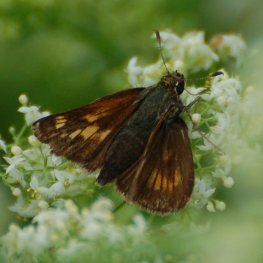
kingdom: Animalia
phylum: Arthropoda
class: Insecta
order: Lepidoptera
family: Hesperiidae
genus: Polites
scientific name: Polites coras
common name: Peck's Skipper
